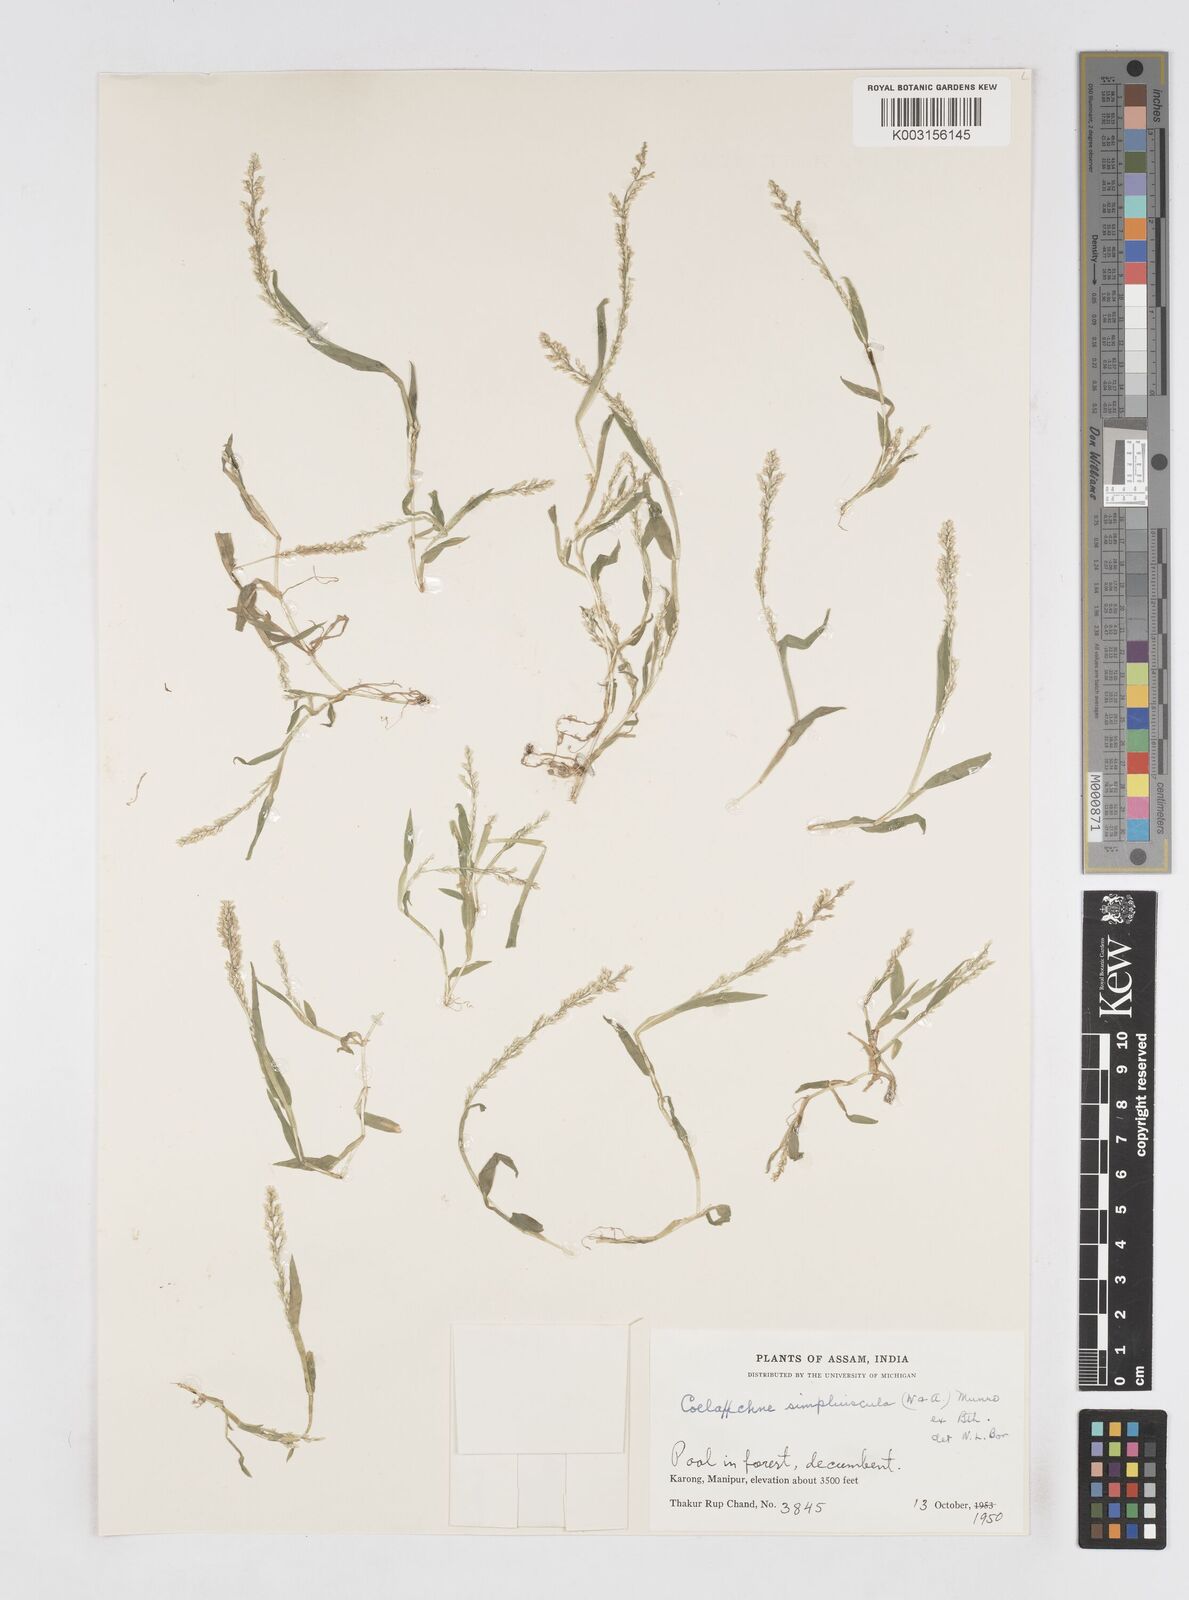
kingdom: Plantae
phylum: Tracheophyta
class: Liliopsida
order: Poales
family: Poaceae
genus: Coelachne
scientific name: Coelachne simpliciuscula
